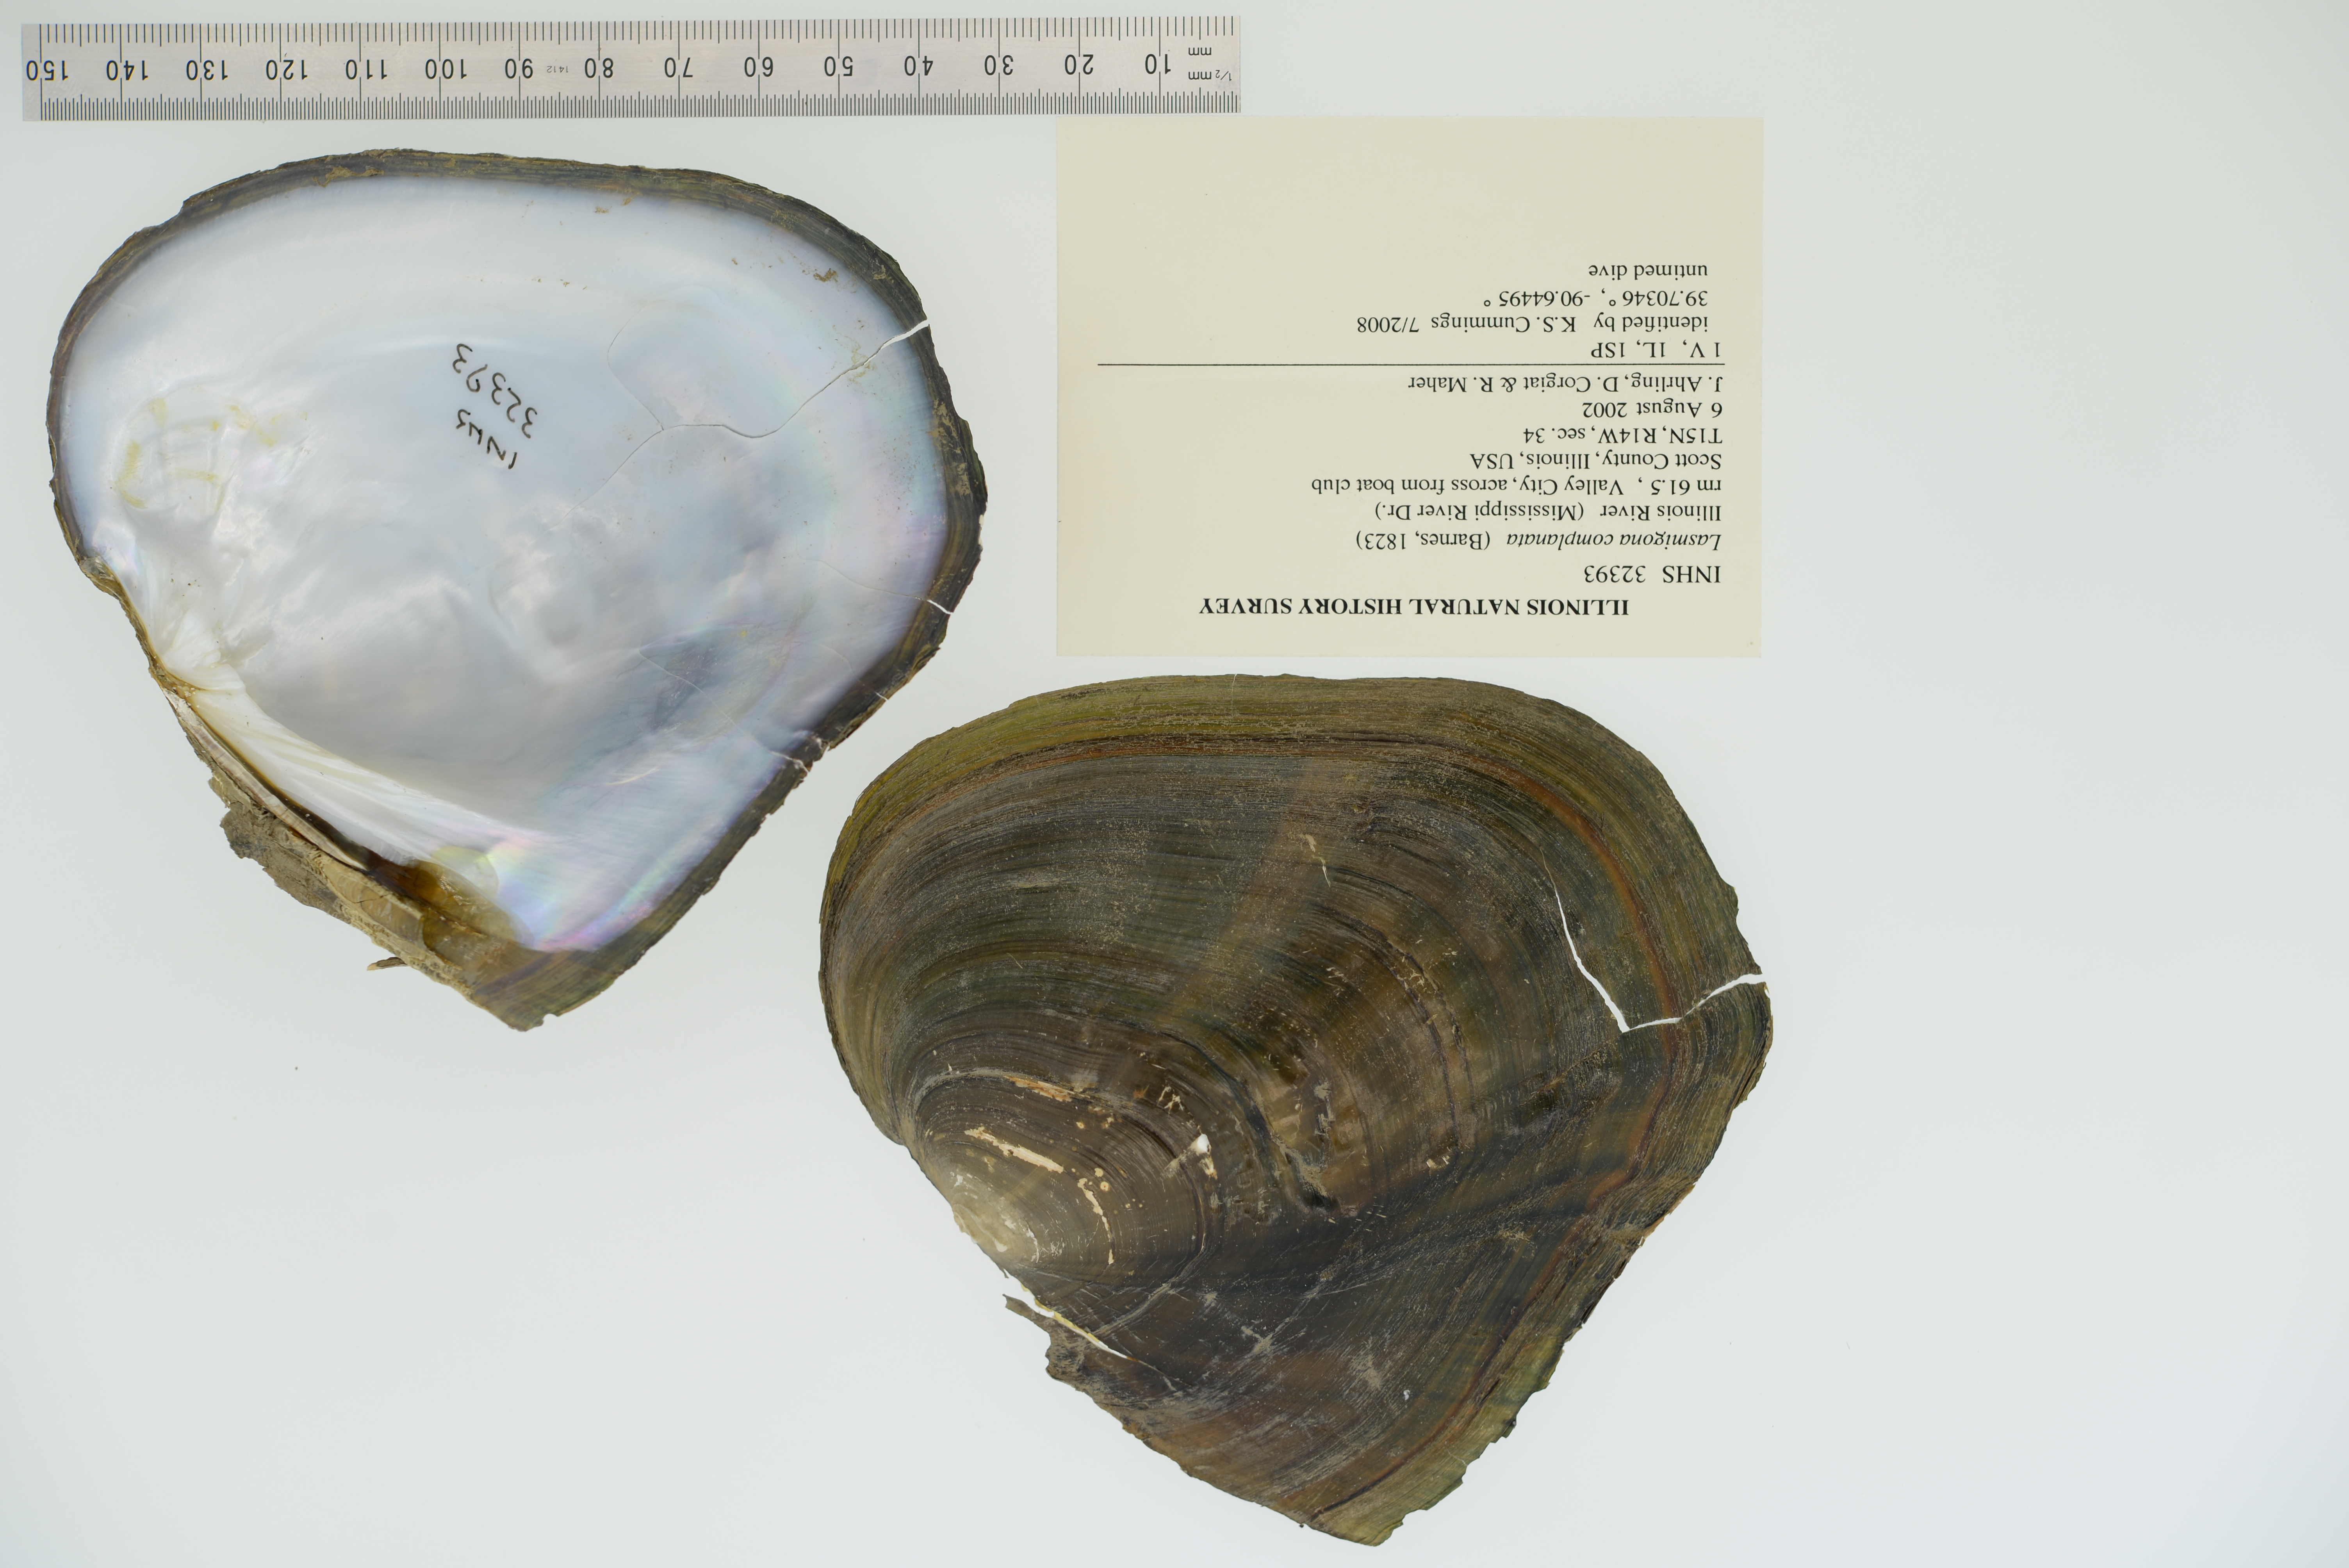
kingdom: Animalia
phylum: Mollusca
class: Bivalvia
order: Unionida
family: Unionidae
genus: Lasmigona
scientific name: Lasmigona complanata
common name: White heelsplitter
